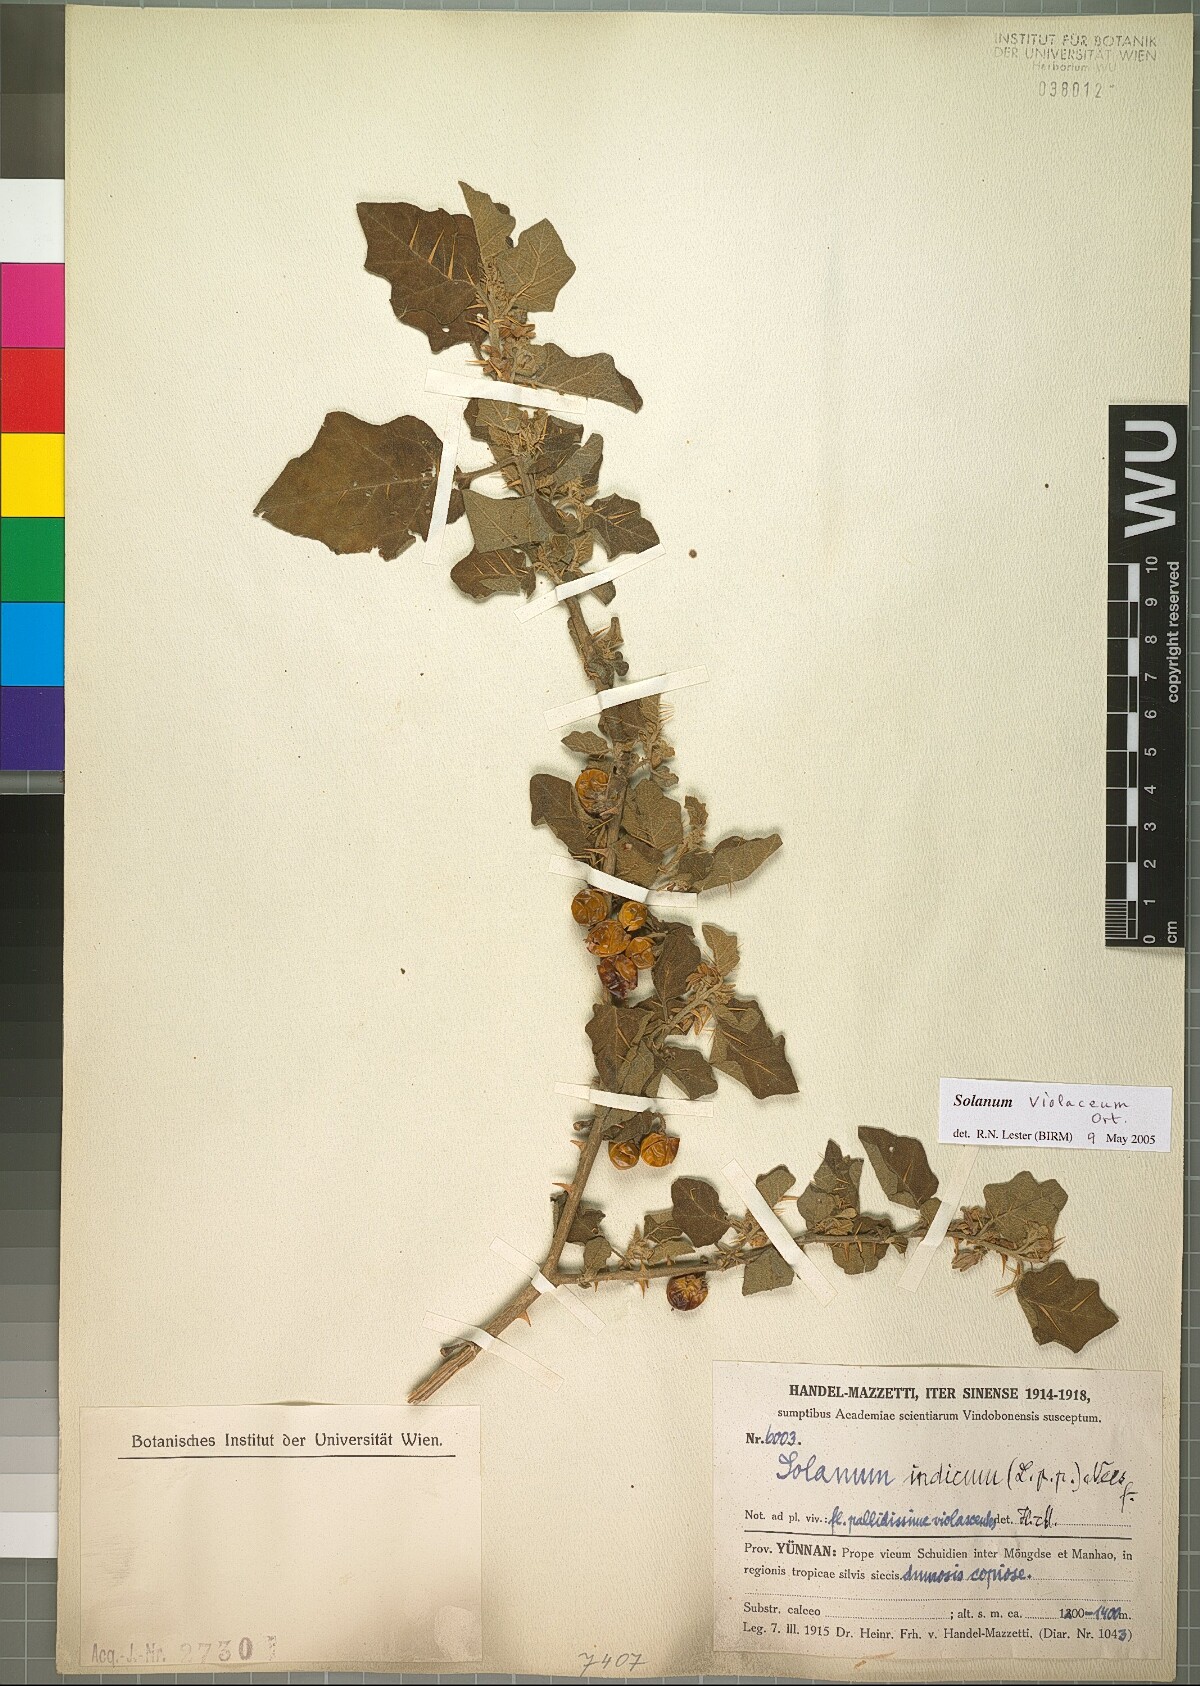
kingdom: Plantae
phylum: Tracheophyta
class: Magnoliopsida
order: Solanales
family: Solanaceae
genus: Solanum
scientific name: Solanum violaceum
